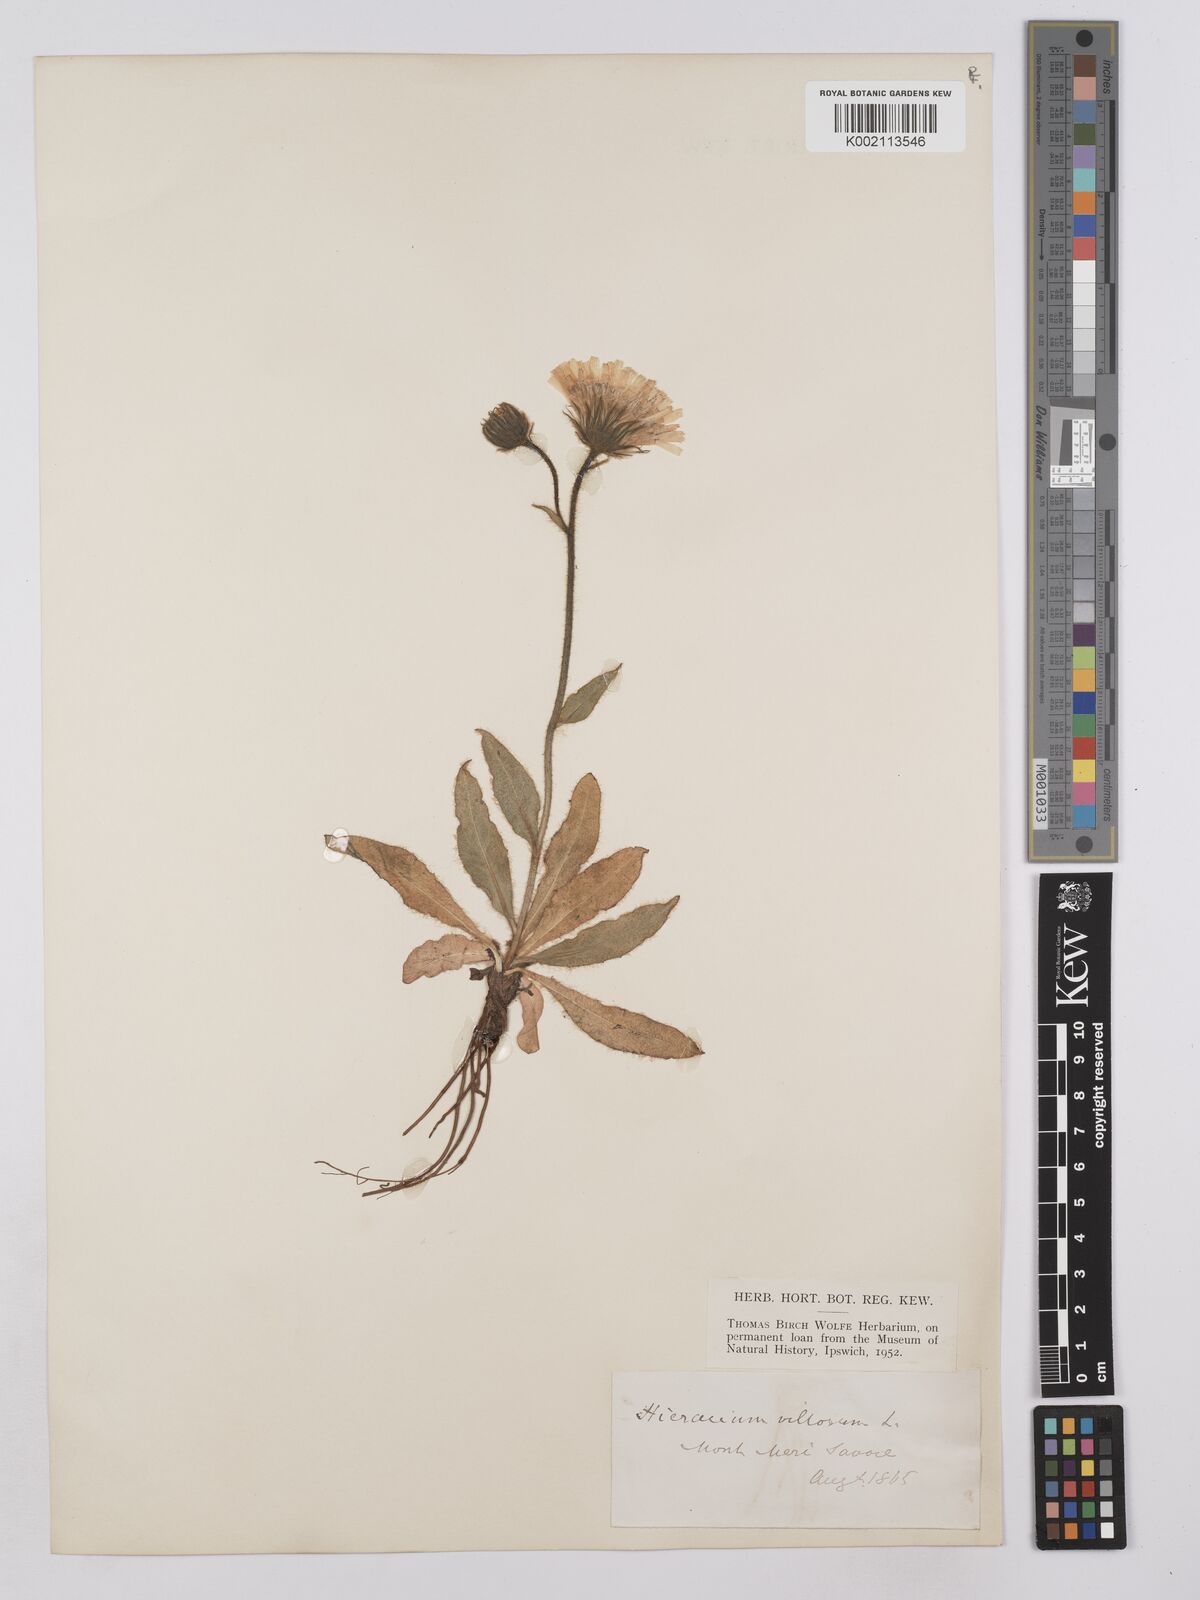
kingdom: Plantae
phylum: Tracheophyta
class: Magnoliopsida
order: Asterales
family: Asteraceae
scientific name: Asteraceae
